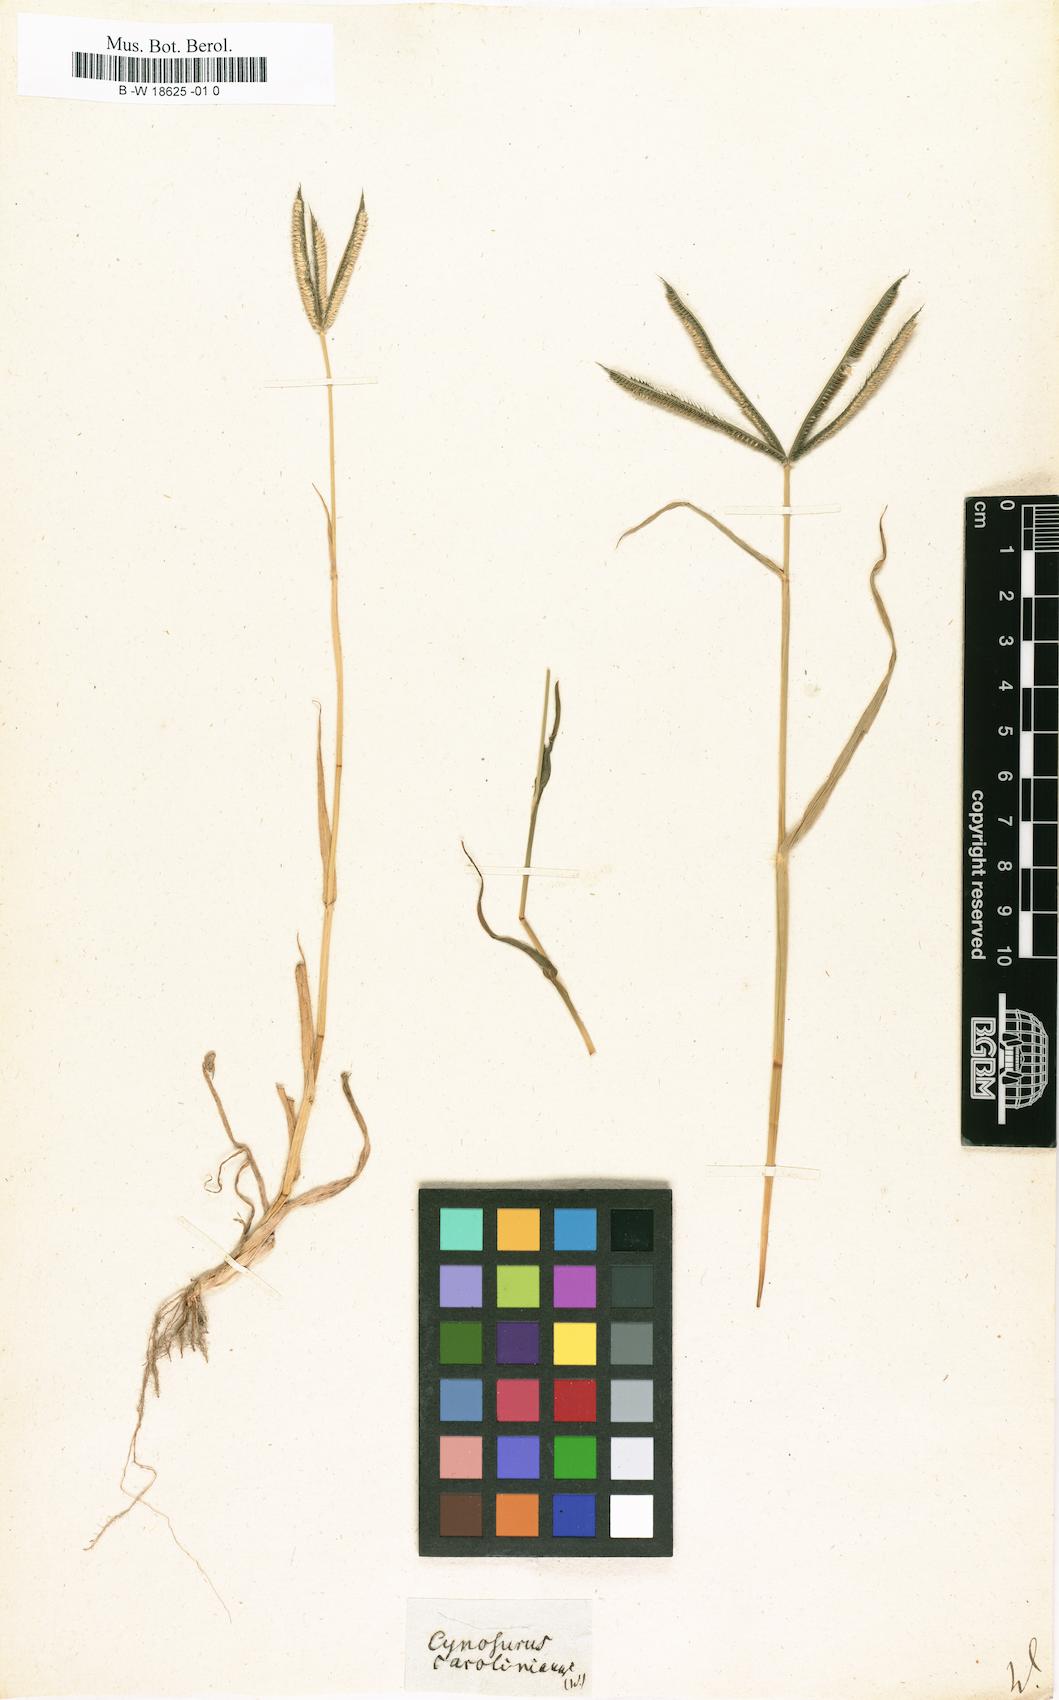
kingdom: Plantae
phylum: Tracheophyta
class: Liliopsida
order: Poales
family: Poaceae
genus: Dactyloctenium
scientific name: Dactyloctenium
